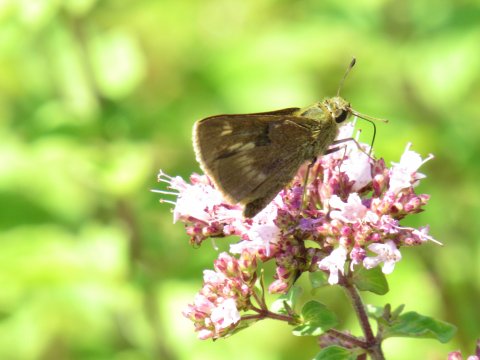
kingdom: Animalia
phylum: Arthropoda
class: Insecta
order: Lepidoptera
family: Hesperiidae
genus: Polites
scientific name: Polites egeremet
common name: Northern Broken-Dash
